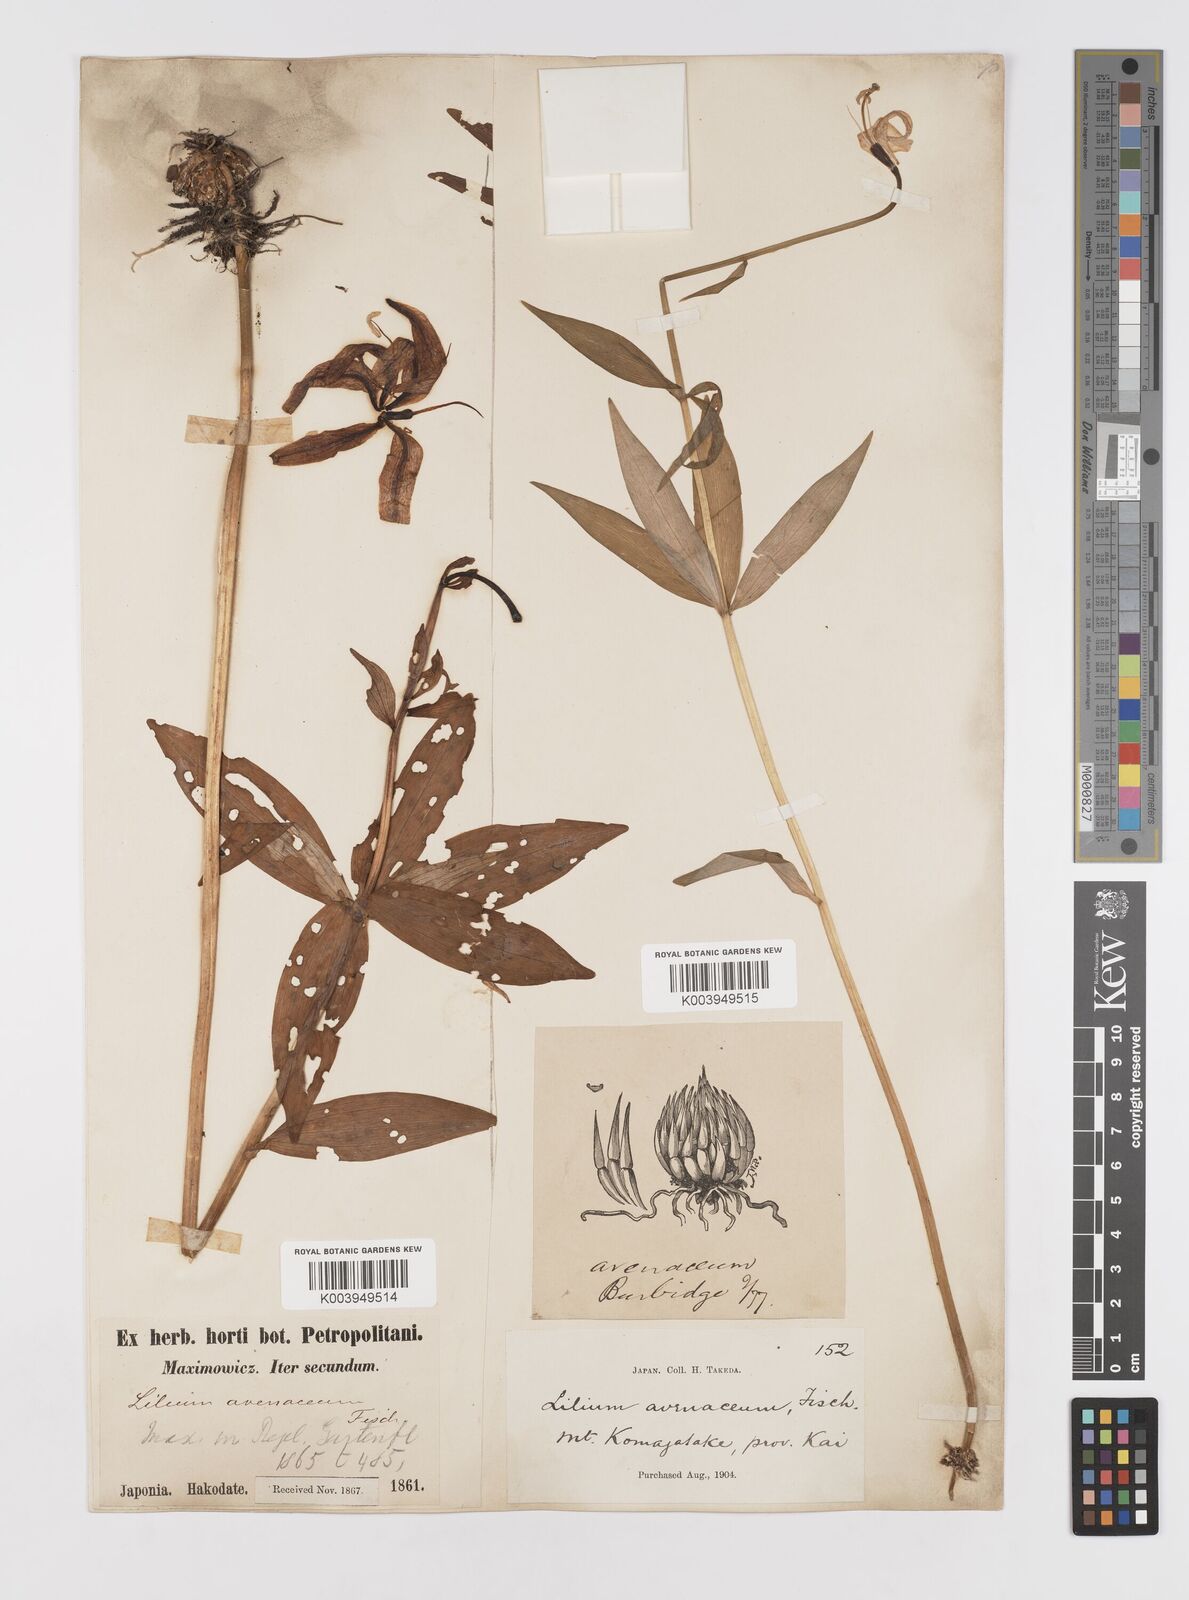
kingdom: Plantae
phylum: Tracheophyta
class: Liliopsida
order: Liliales
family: Liliaceae
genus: Lilium
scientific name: Lilium medeoloides
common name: Wheel lily
